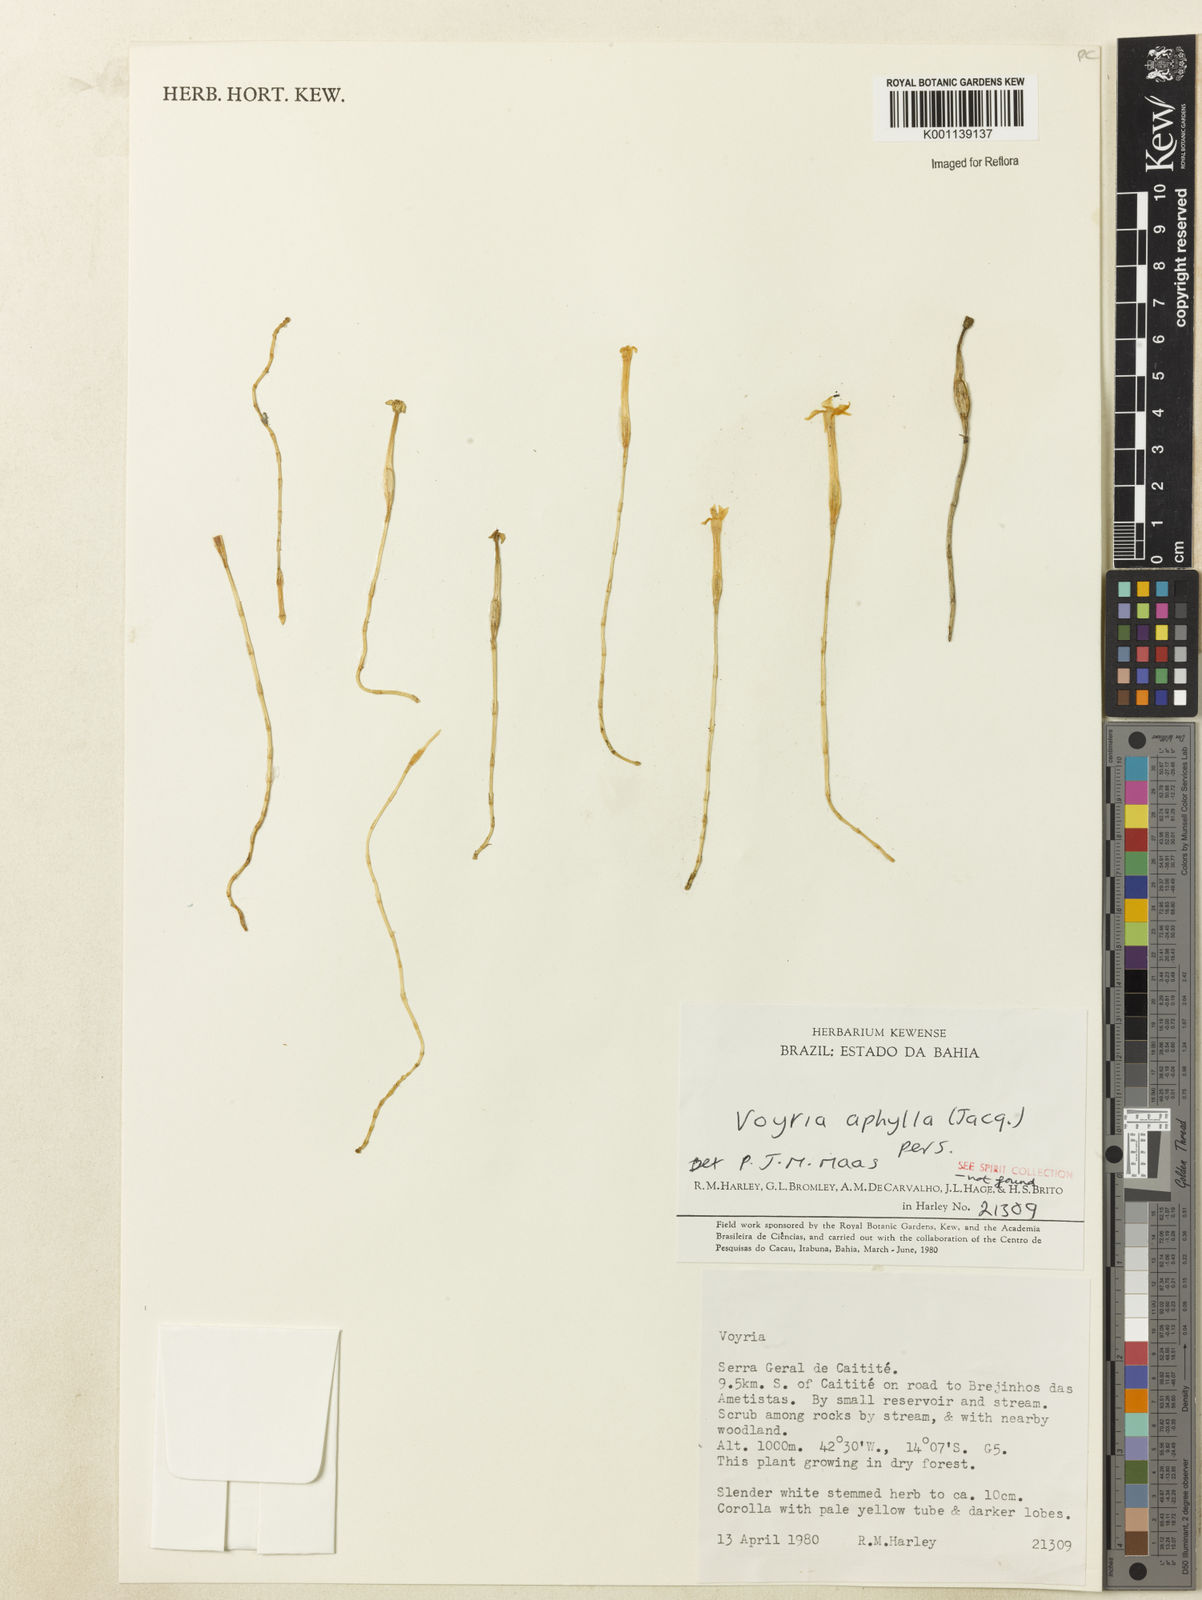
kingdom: Plantae
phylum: Tracheophyta
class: Magnoliopsida
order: Gentianales
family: Gentianaceae
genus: Voyria
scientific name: Voyria aphylla
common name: Leafless ghost plant
